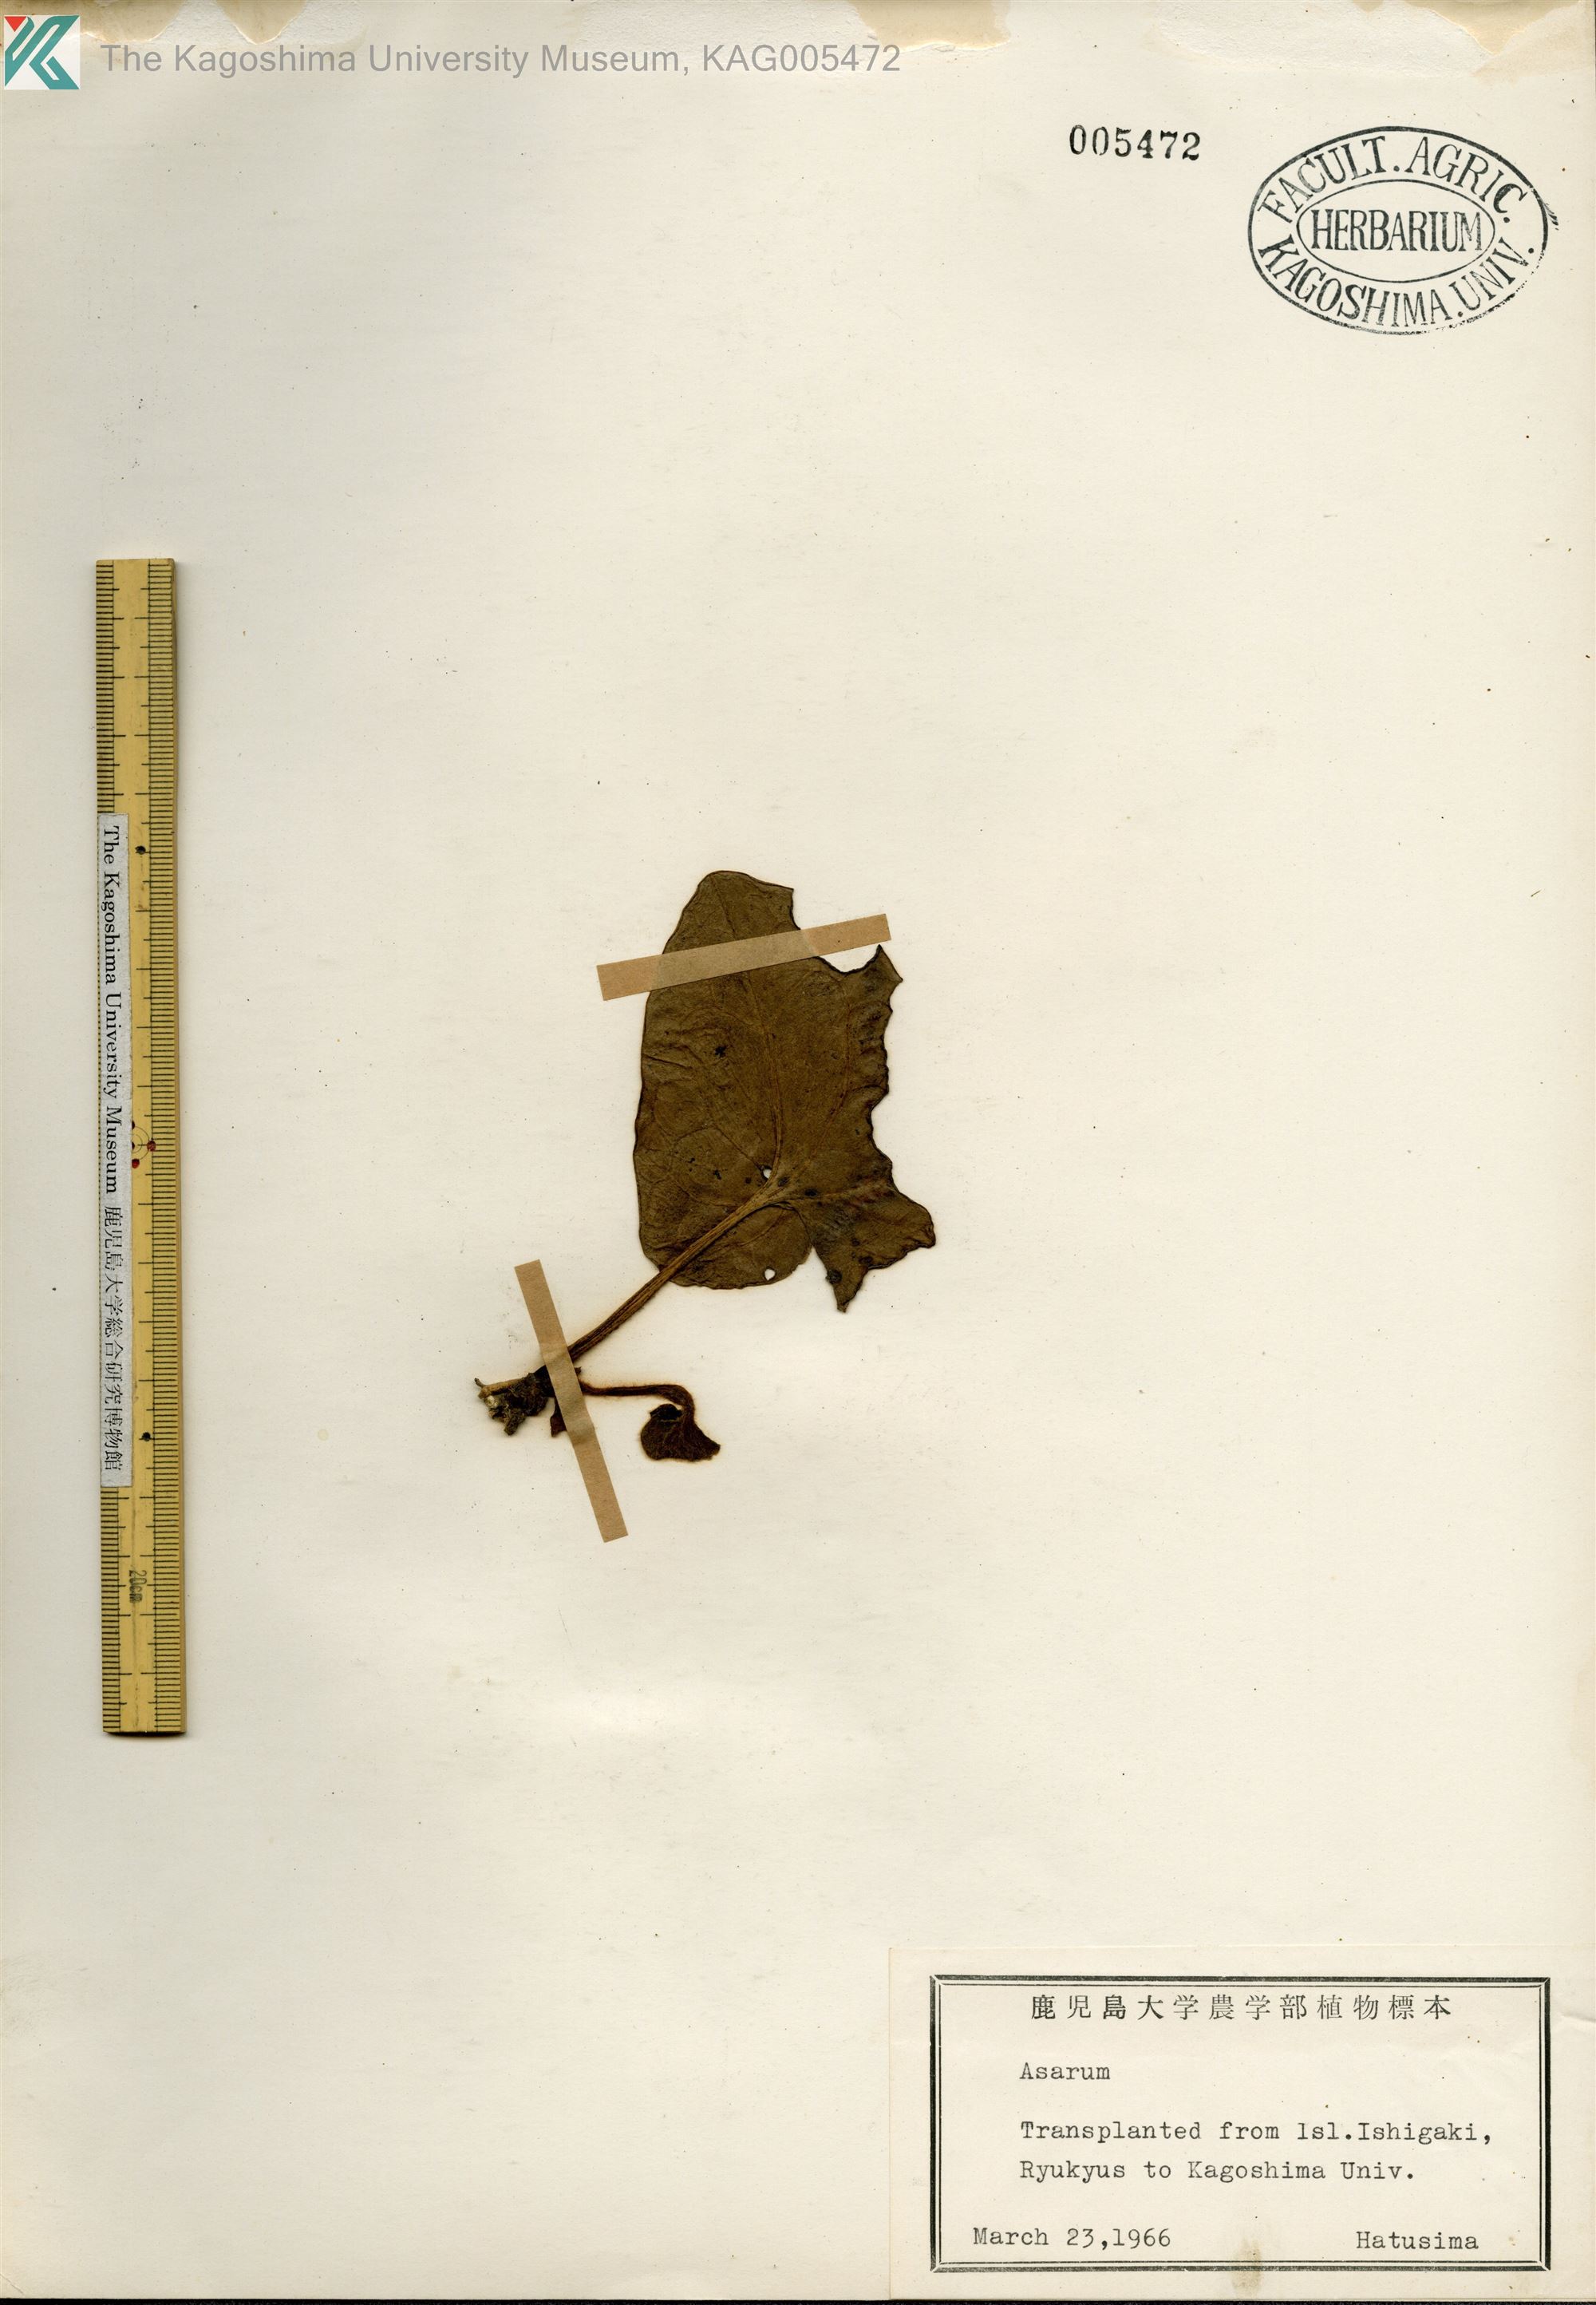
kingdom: Plantae
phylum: Tracheophyta
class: Magnoliopsida
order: Piperales
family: Aristolochiaceae
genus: Asarum
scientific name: Asarum dissitum
